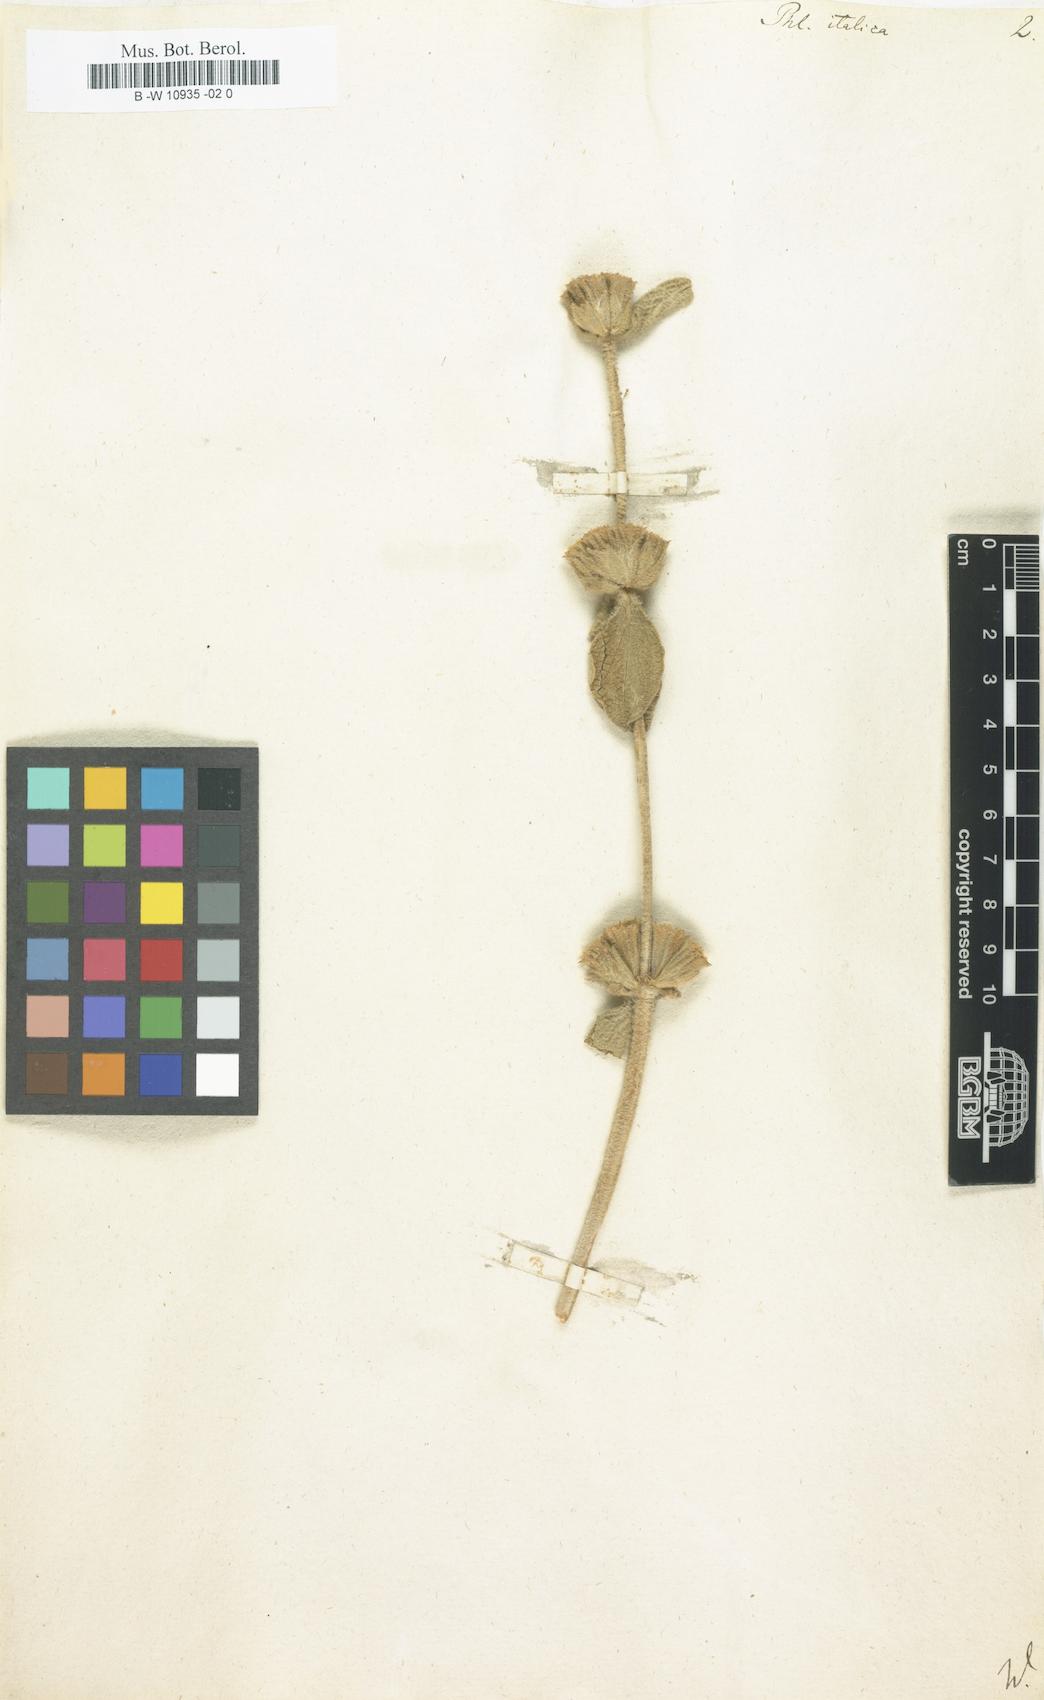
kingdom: Plantae
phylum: Tracheophyta
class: Magnoliopsida
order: Lamiales
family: Lamiaceae
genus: Phlomis
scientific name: Phlomis italica
